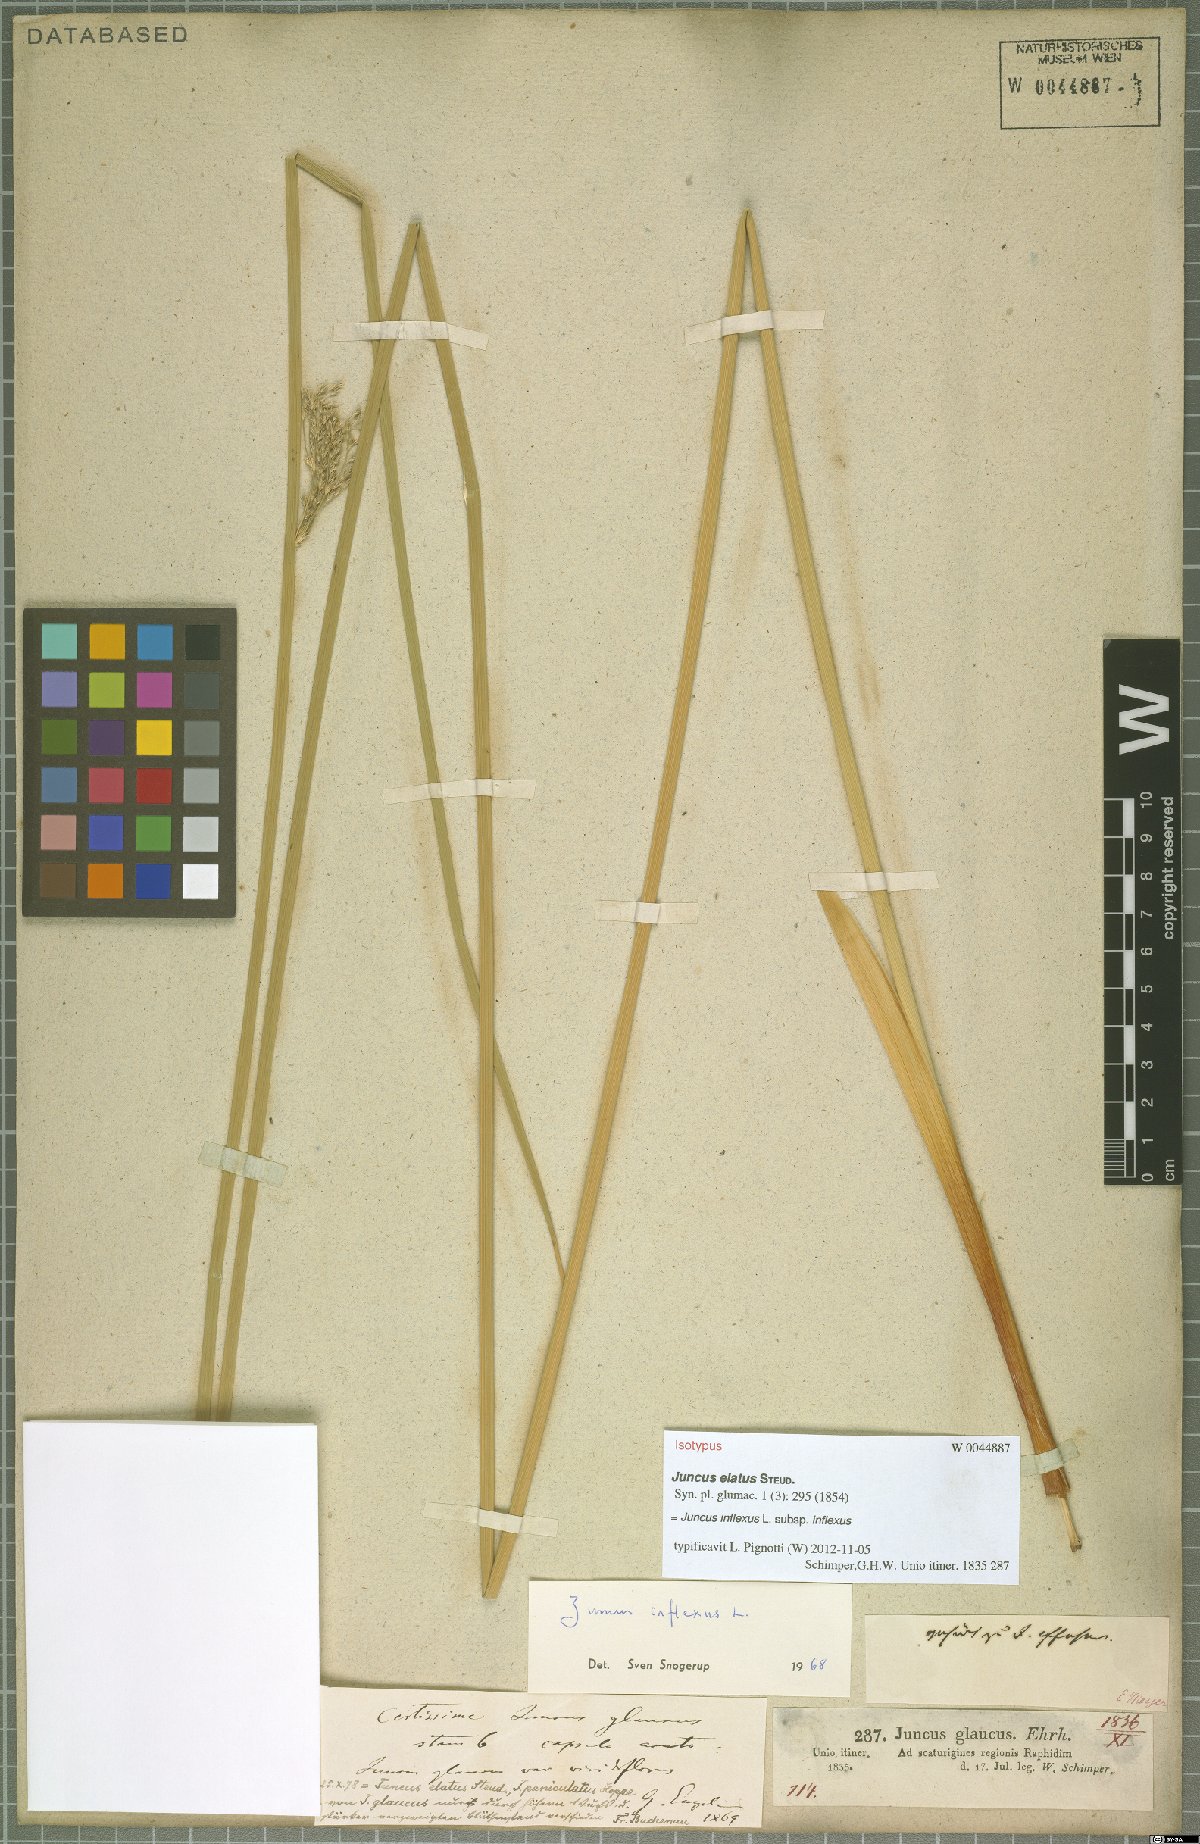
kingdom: Plantae
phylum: Tracheophyta
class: Liliopsida
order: Poales
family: Juncaceae
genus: Juncus
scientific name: Juncus inflexus
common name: Hard rush
